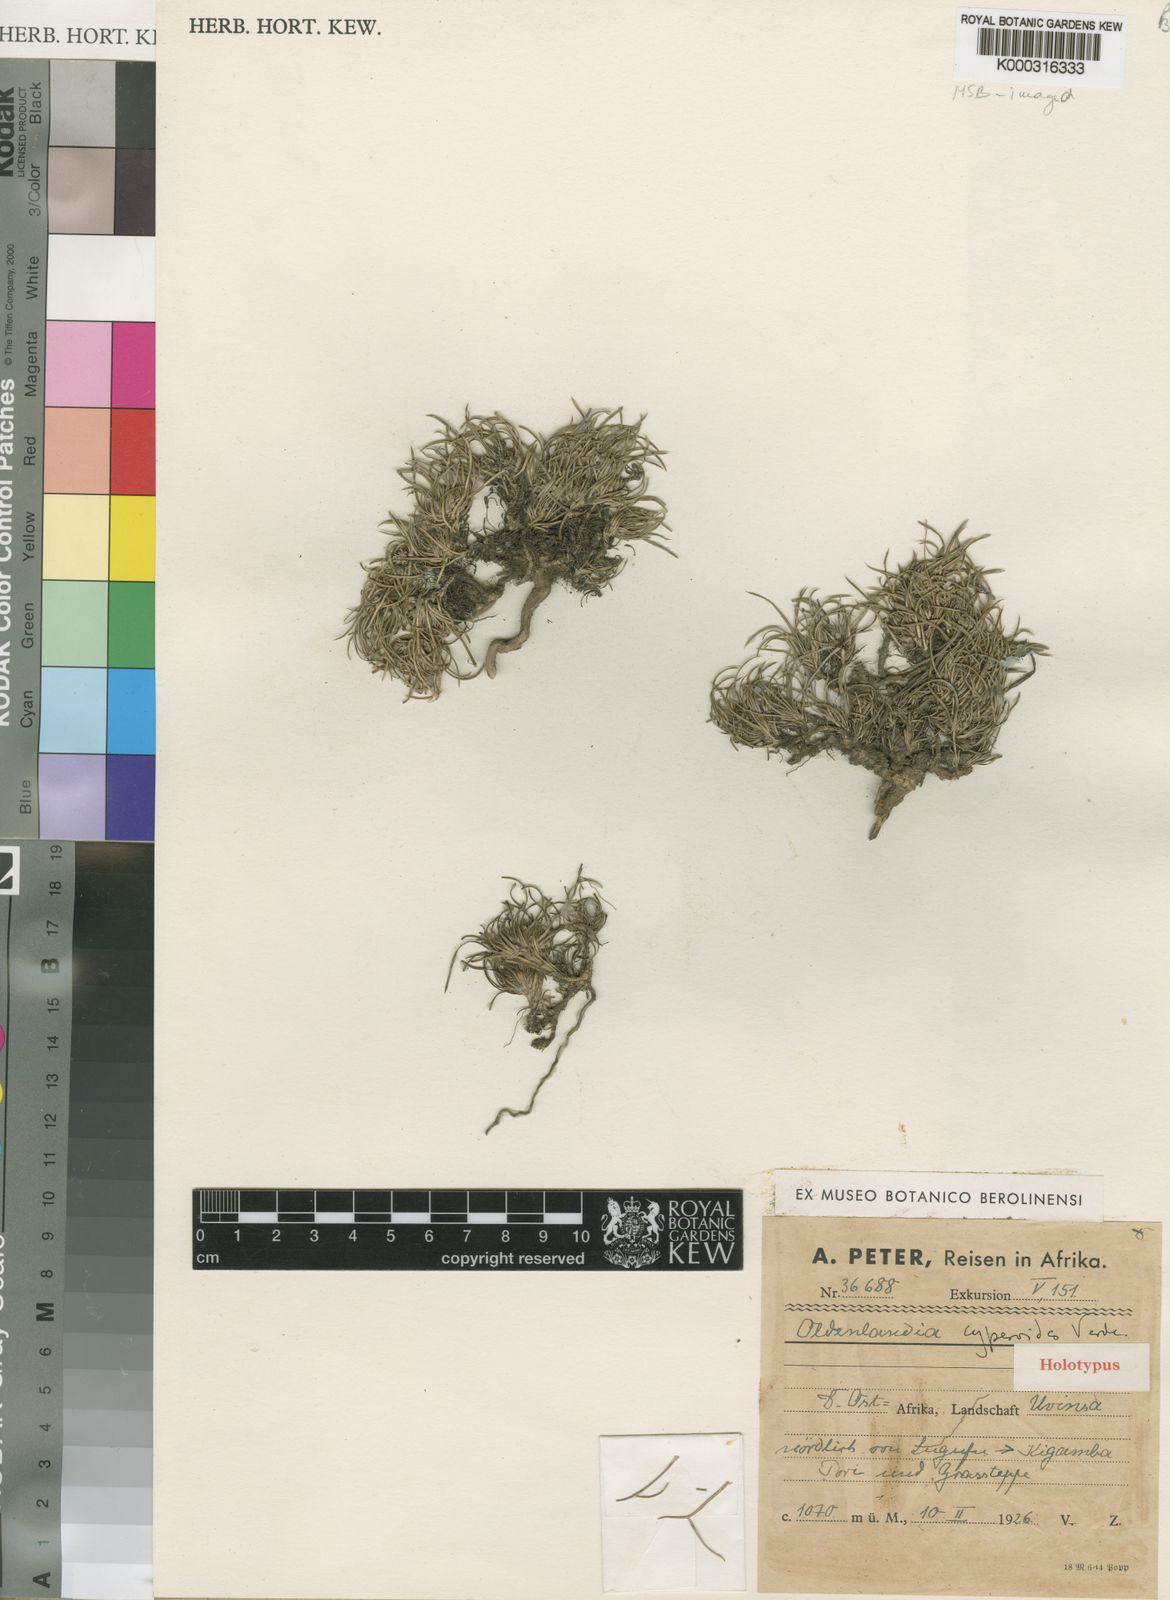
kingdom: Plantae
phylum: Tracheophyta
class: Magnoliopsida
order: Gentianales
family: Rubiaceae
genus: Oldenlandia
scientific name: Oldenlandia cyperoides
